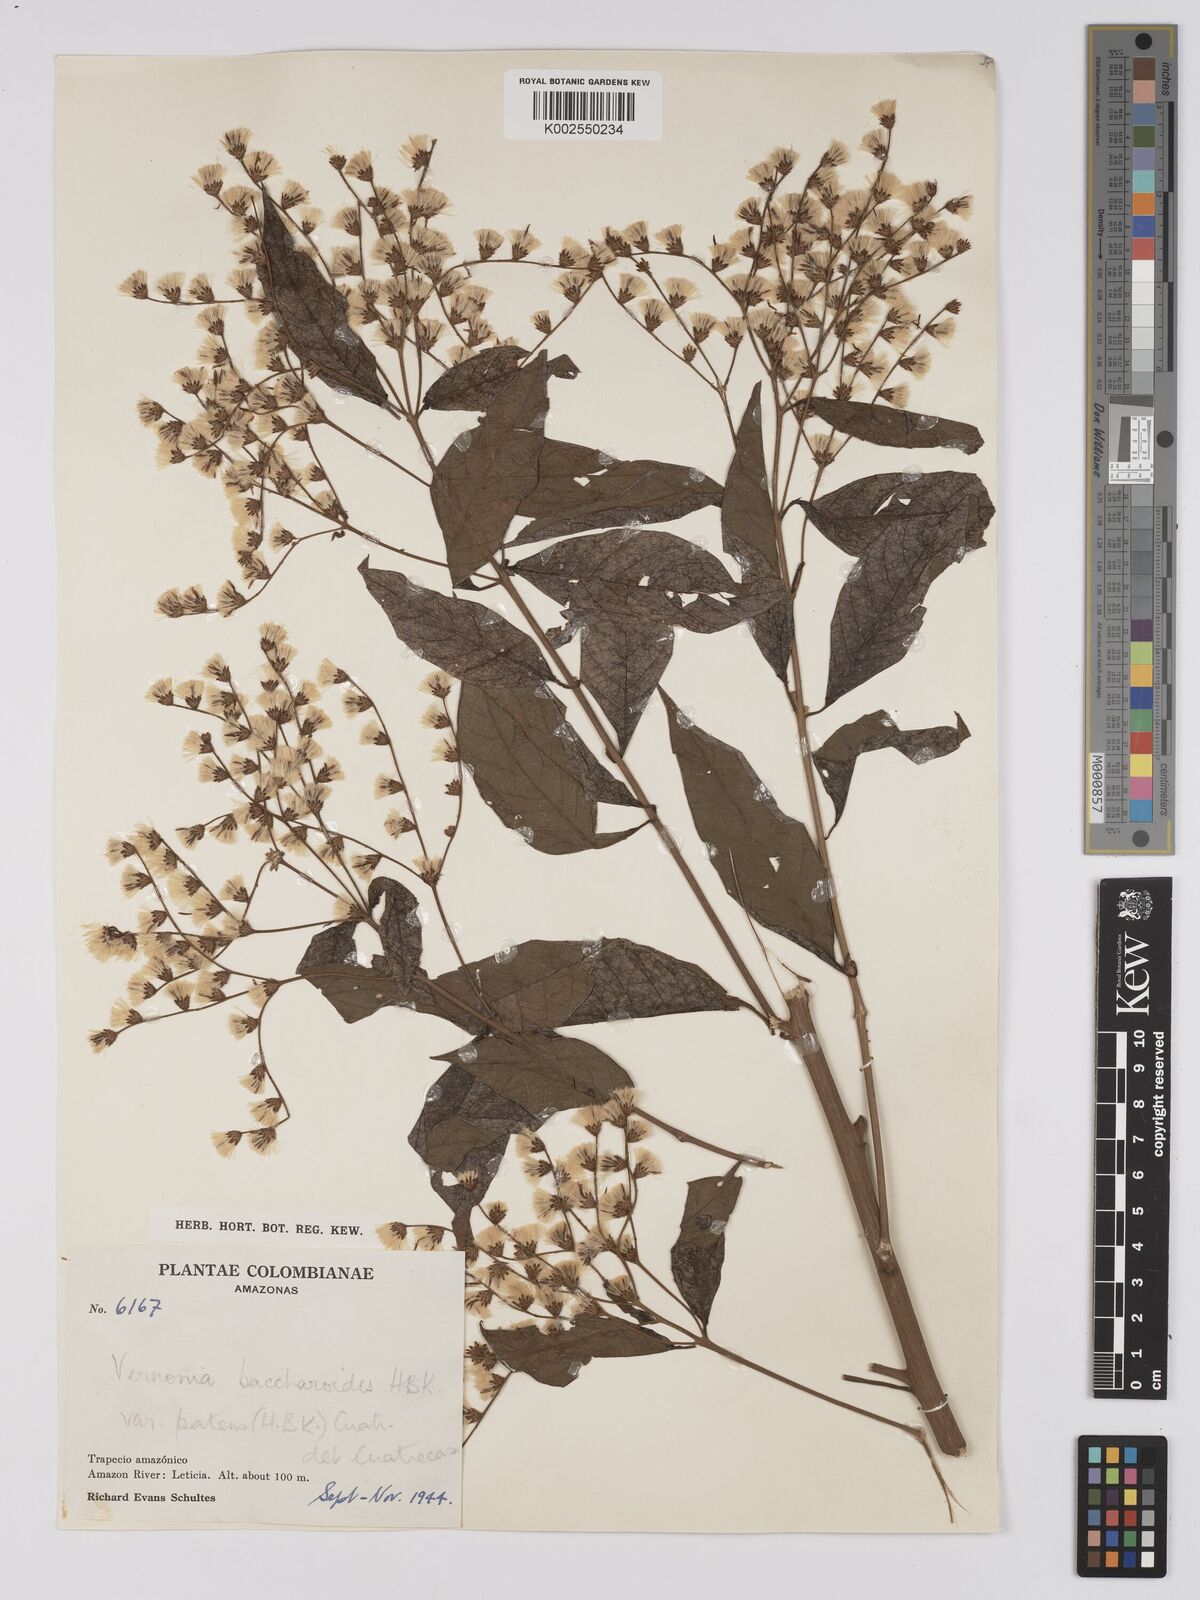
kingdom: Plantae
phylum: Tracheophyta
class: Magnoliopsida
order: Asterales
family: Asteraceae
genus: Vernonanthura
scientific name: Vernonanthura patens
